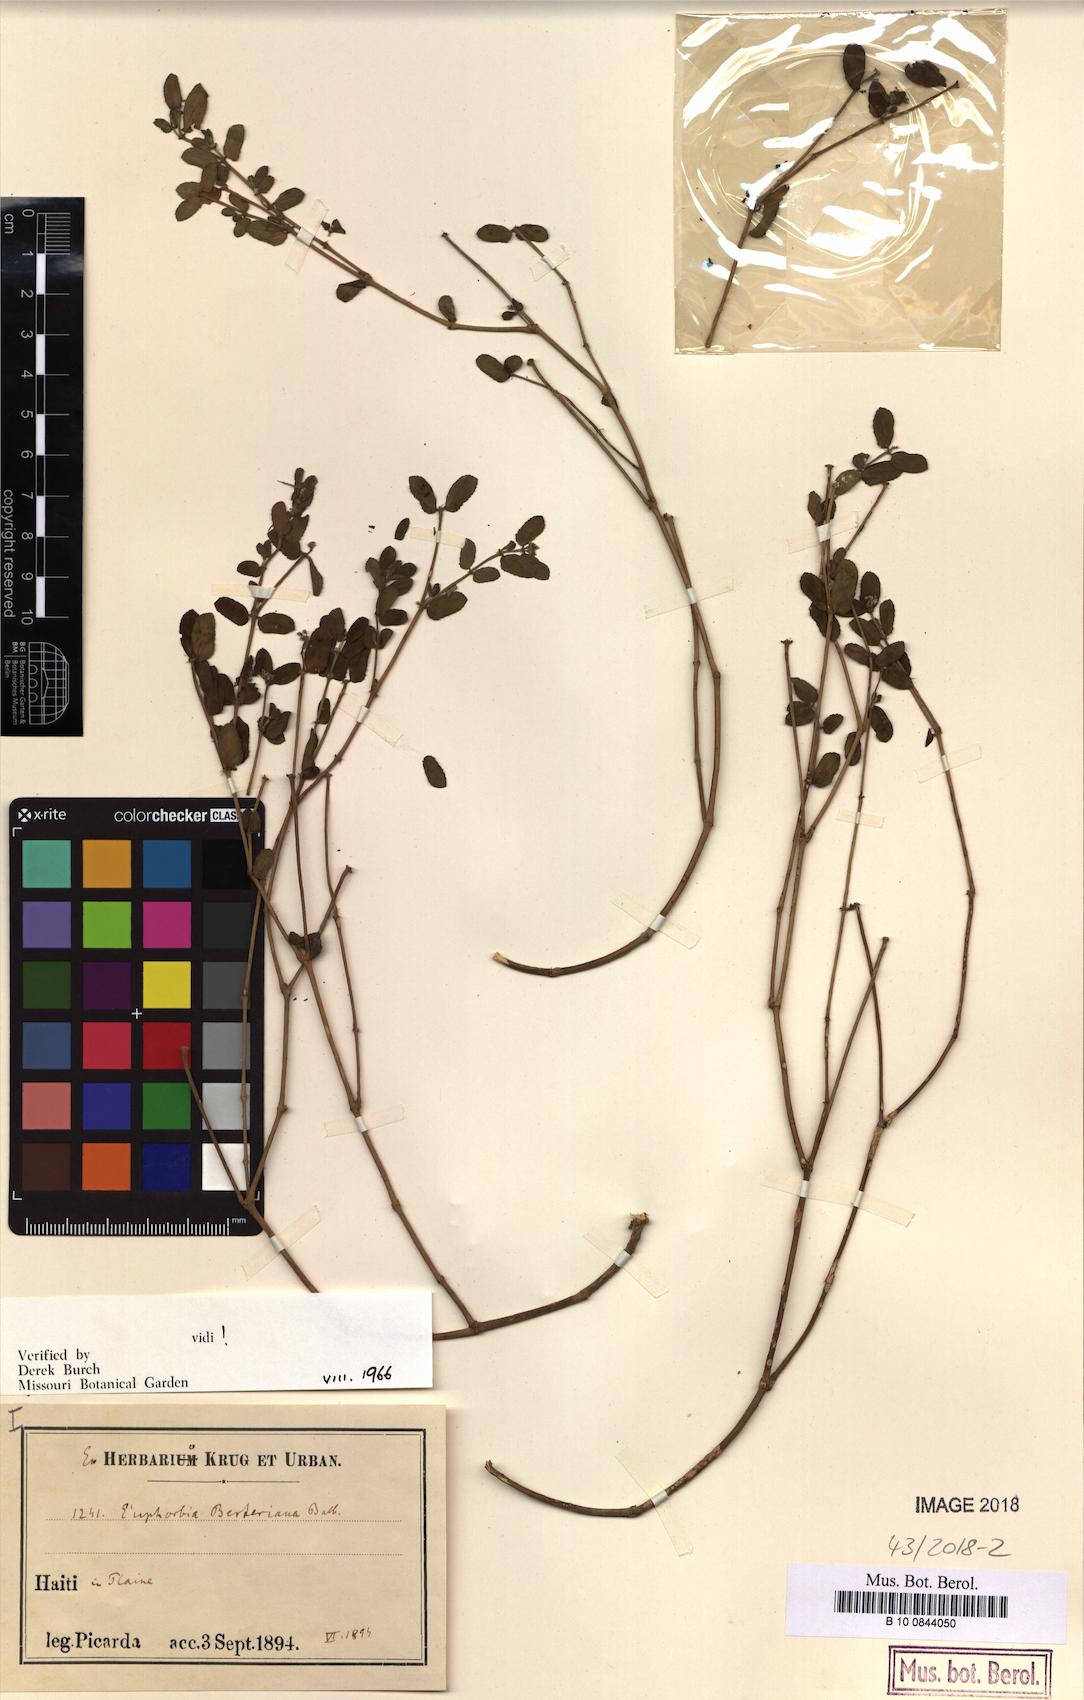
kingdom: Plantae
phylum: Tracheophyta
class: Magnoliopsida
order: Malpighiales
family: Euphorbiaceae
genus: Euphorbia
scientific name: Euphorbia berteroana
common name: Bertero's sandmat
